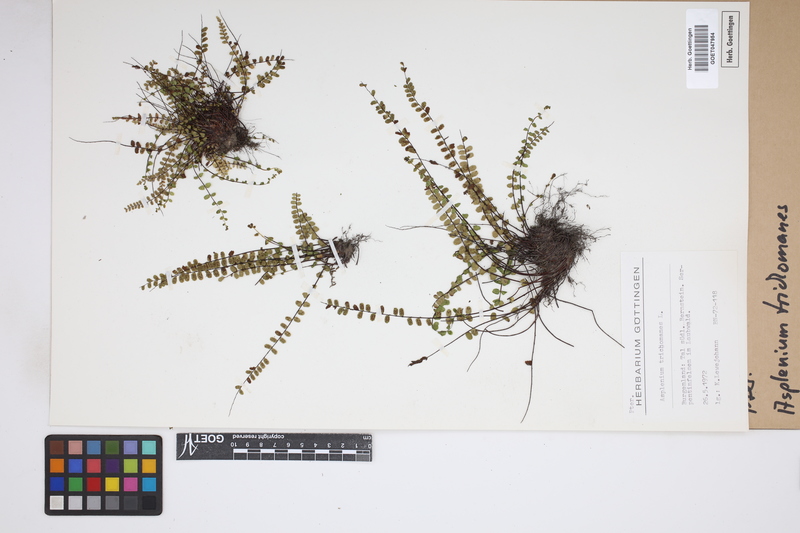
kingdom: Plantae
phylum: Tracheophyta
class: Polypodiopsida
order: Polypodiales
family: Aspleniaceae
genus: Asplenium
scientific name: Asplenium trichomanes
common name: Maidenhair spleenwort
